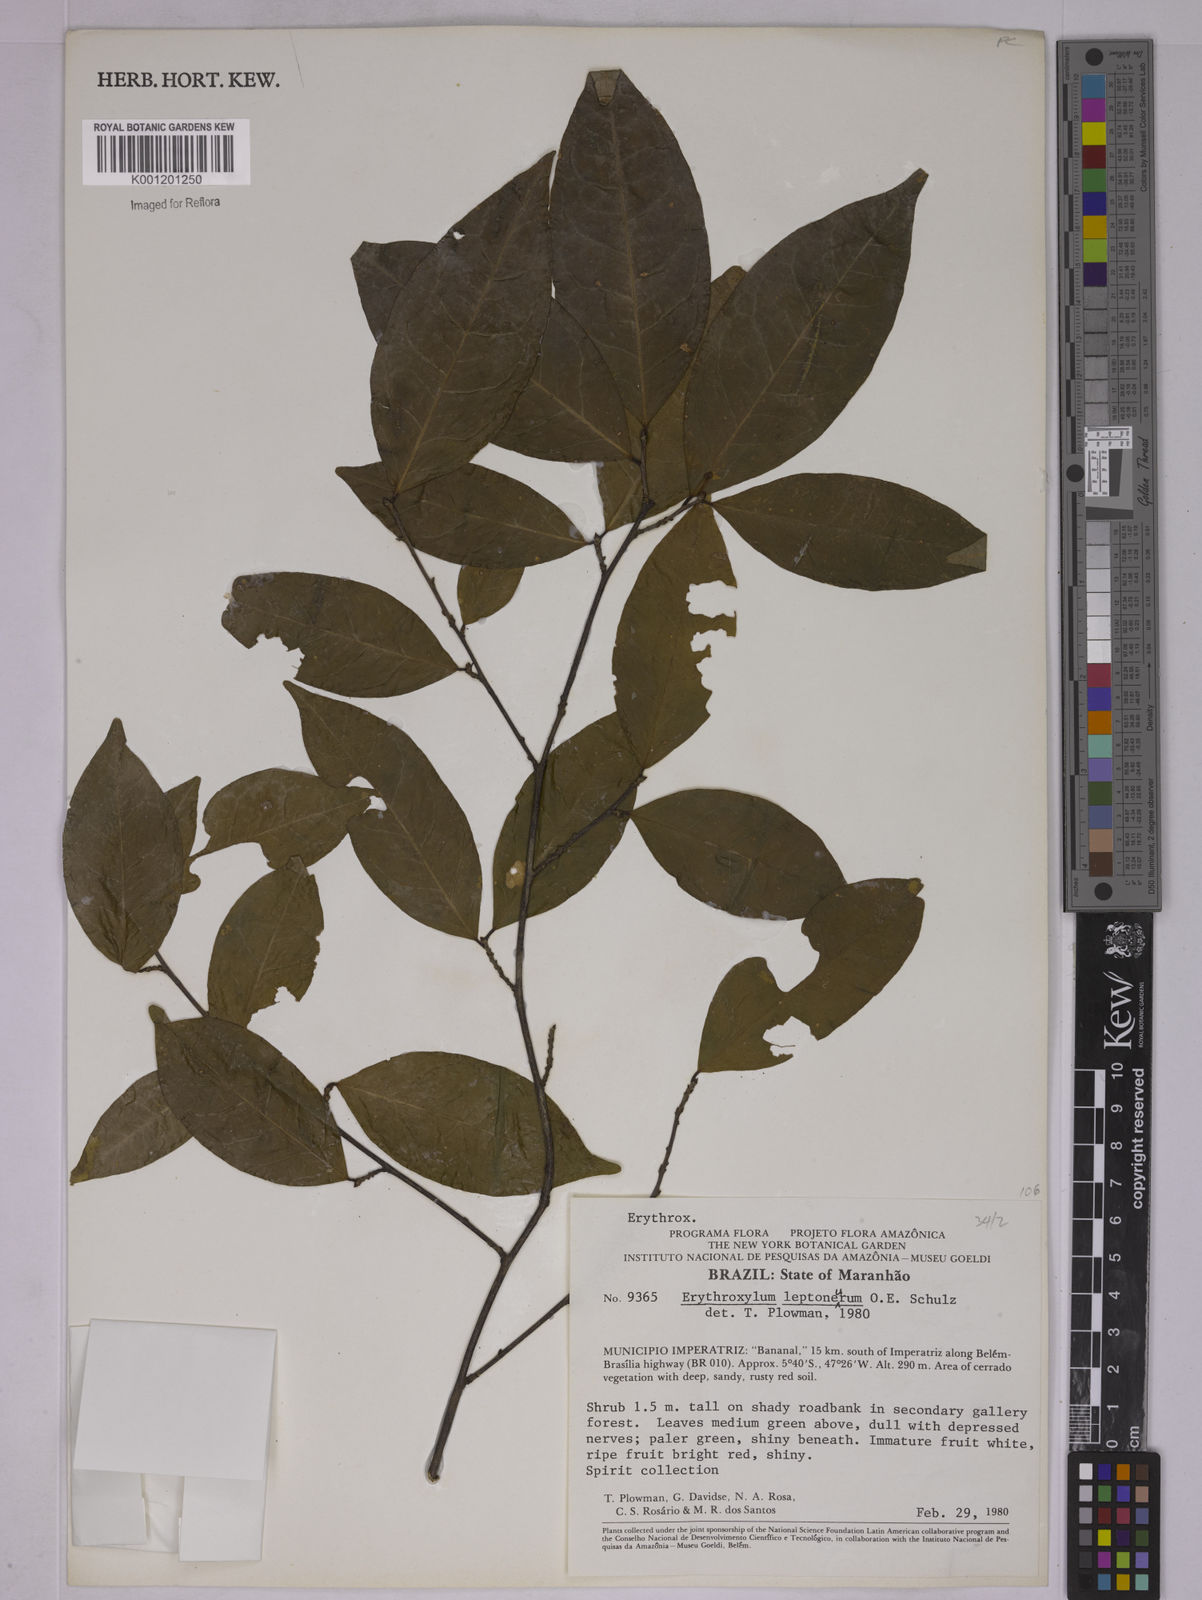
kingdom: Plantae
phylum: Tracheophyta
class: Magnoliopsida
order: Malpighiales
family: Erythroxylaceae
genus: Erythroxylum
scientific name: Erythroxylum leptoneurum
